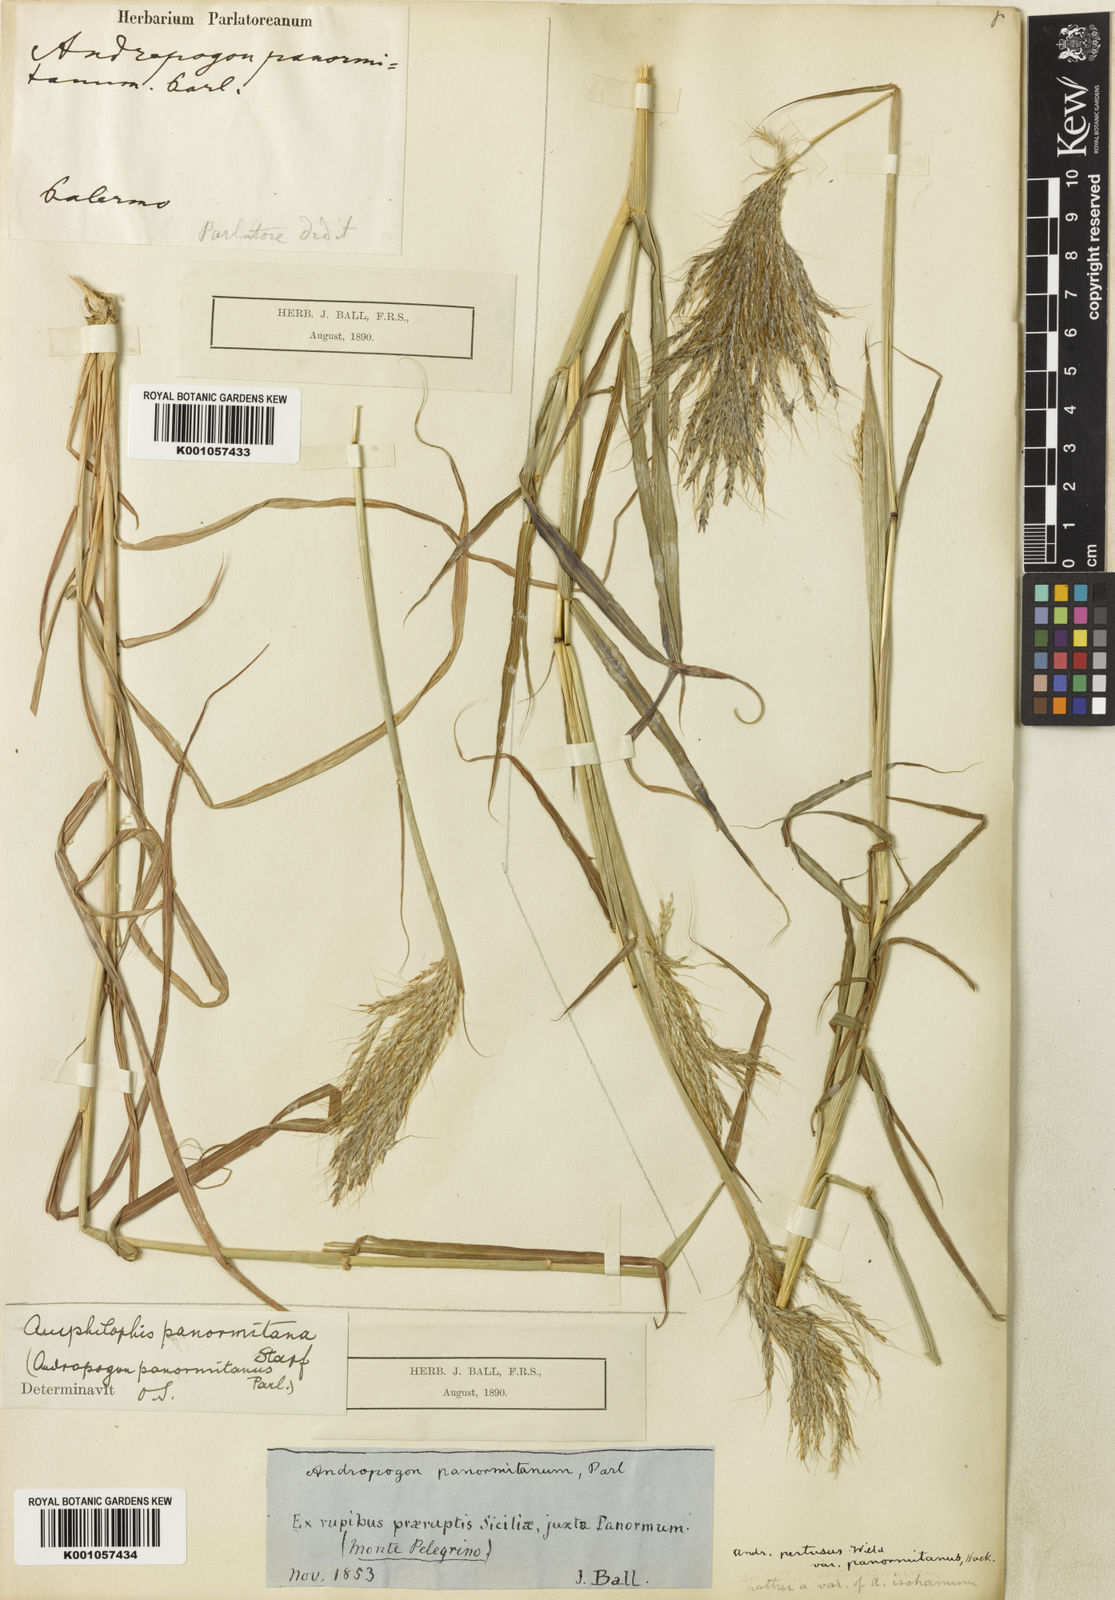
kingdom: Plantae
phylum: Tracheophyta
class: Liliopsida
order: Poales
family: Poaceae
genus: Bothriochloa
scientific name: Bothriochloa insculpta
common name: Creeping-bluegrass
